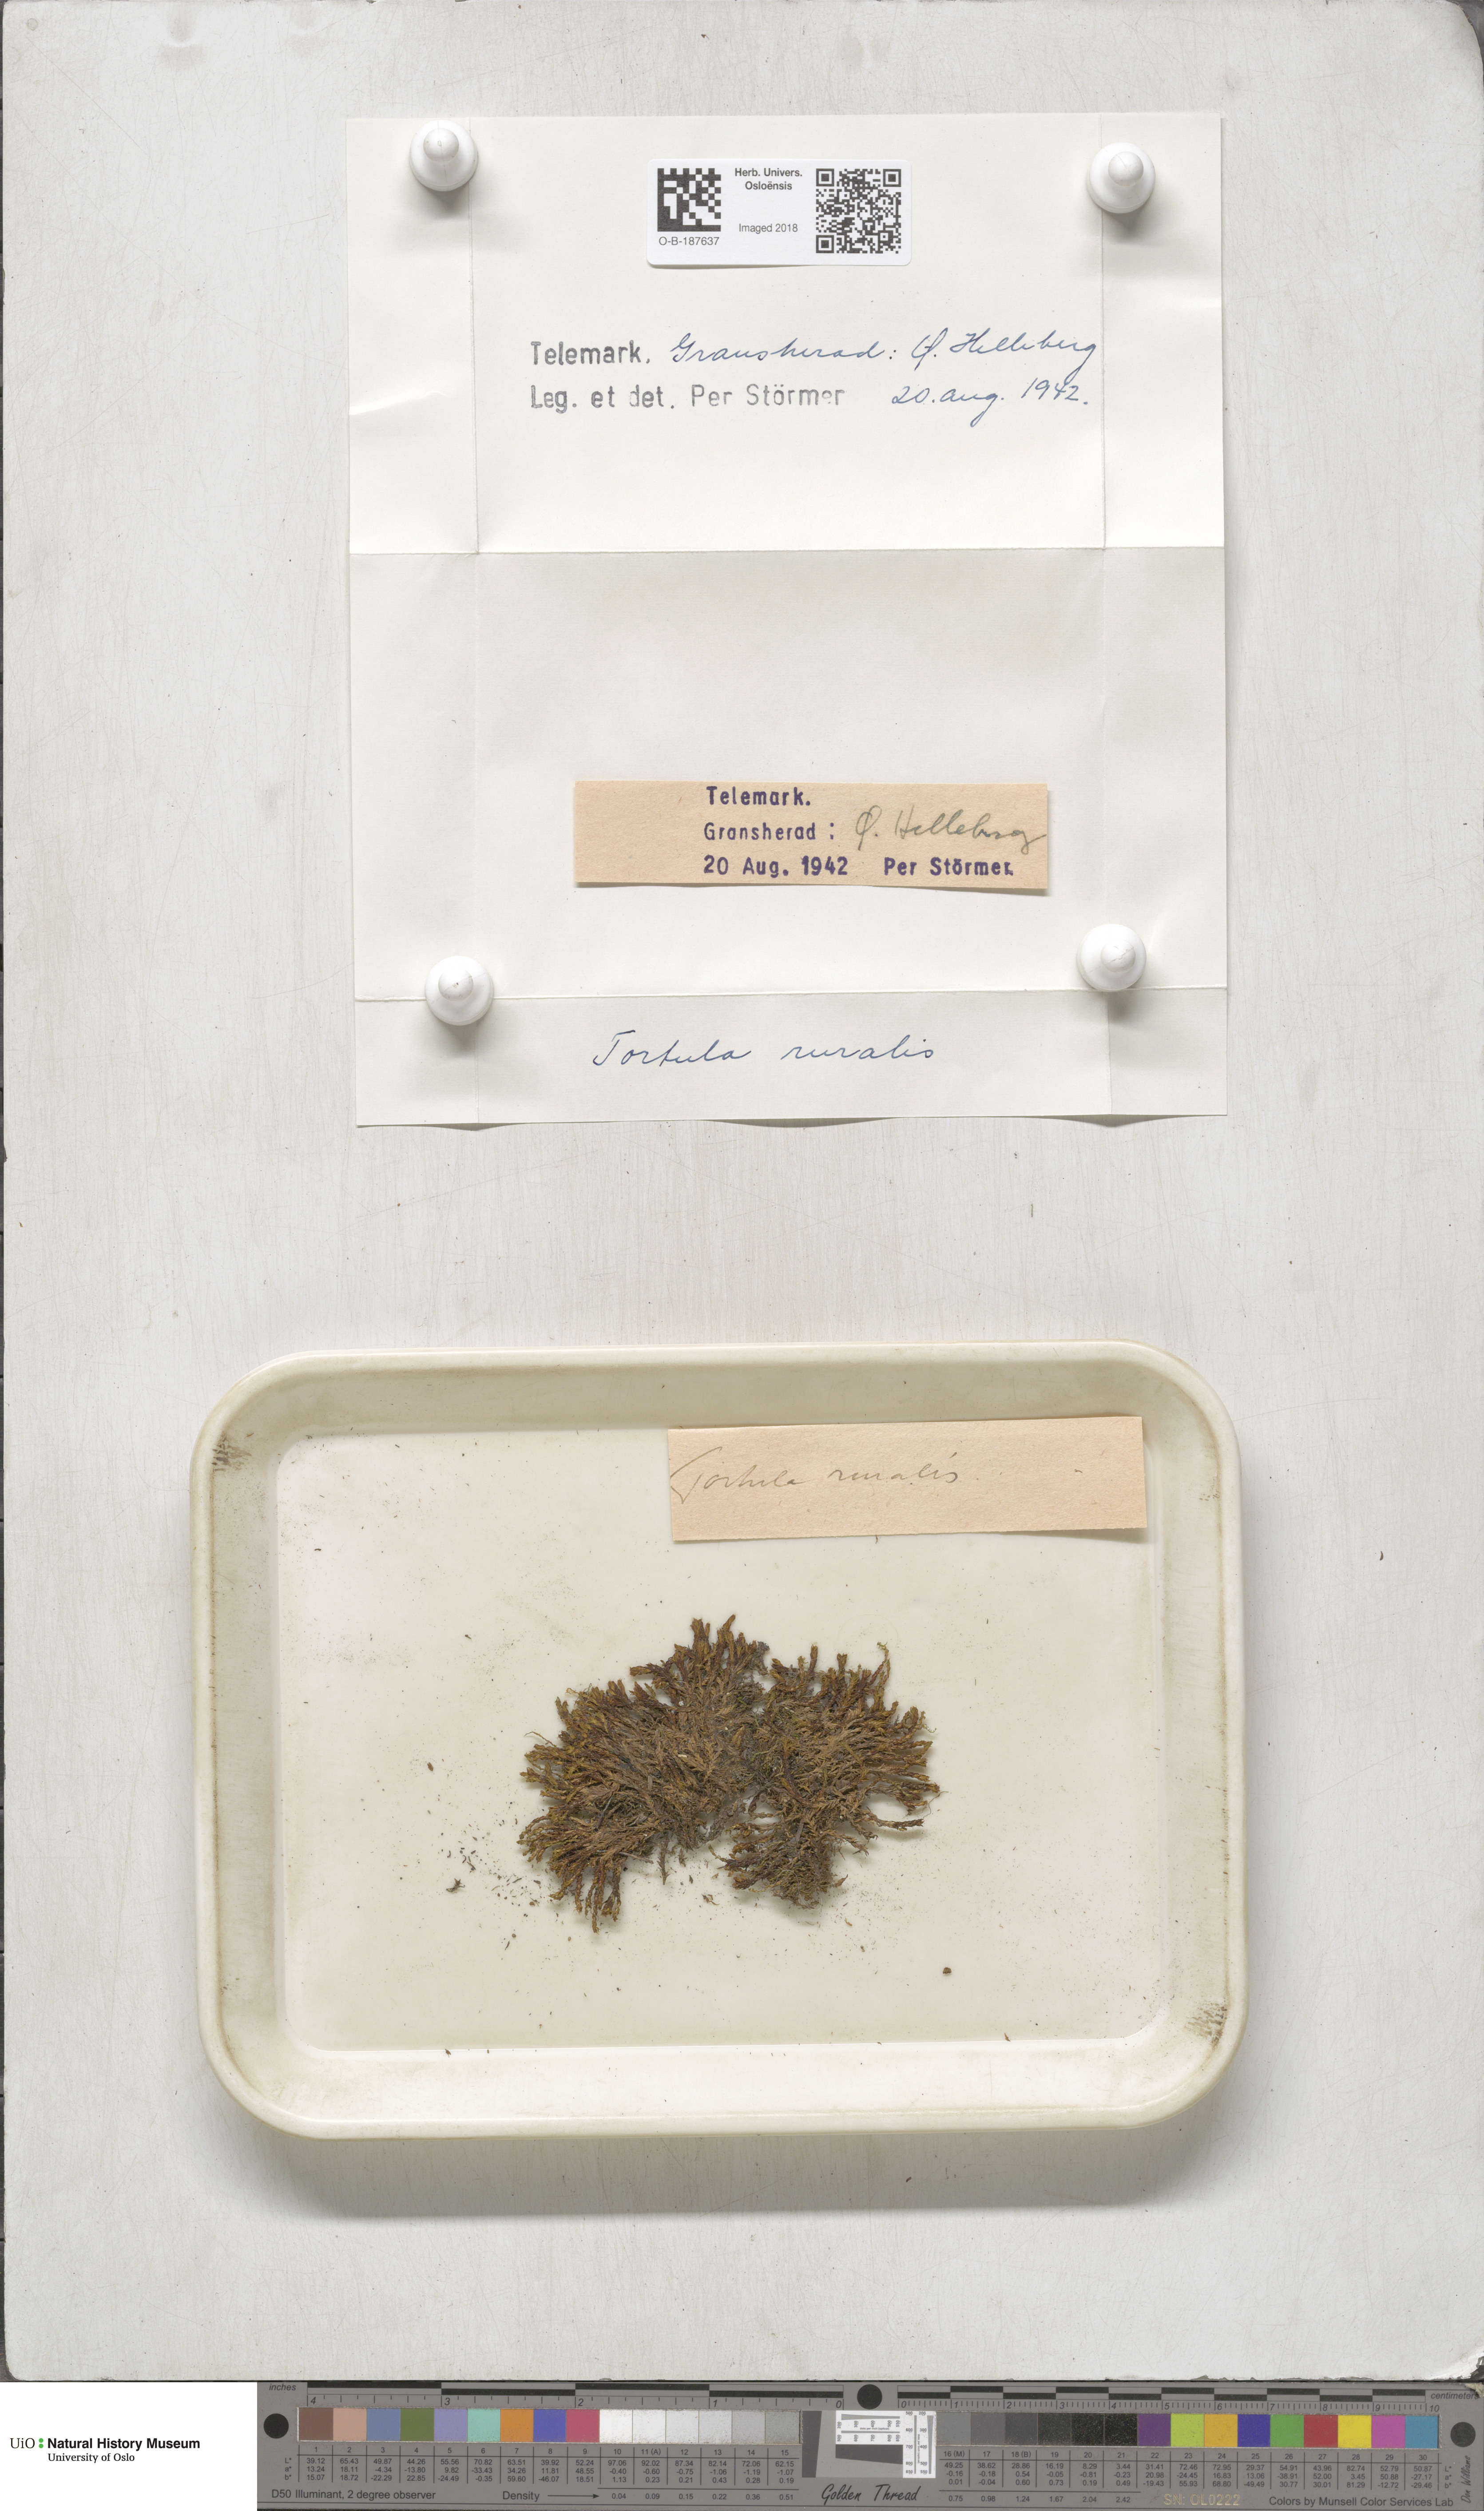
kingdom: Plantae
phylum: Bryophyta
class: Bryopsida
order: Pottiales
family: Pottiaceae
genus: Syntrichia
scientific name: Syntrichia ruralis
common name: Sidewalk screw moss
